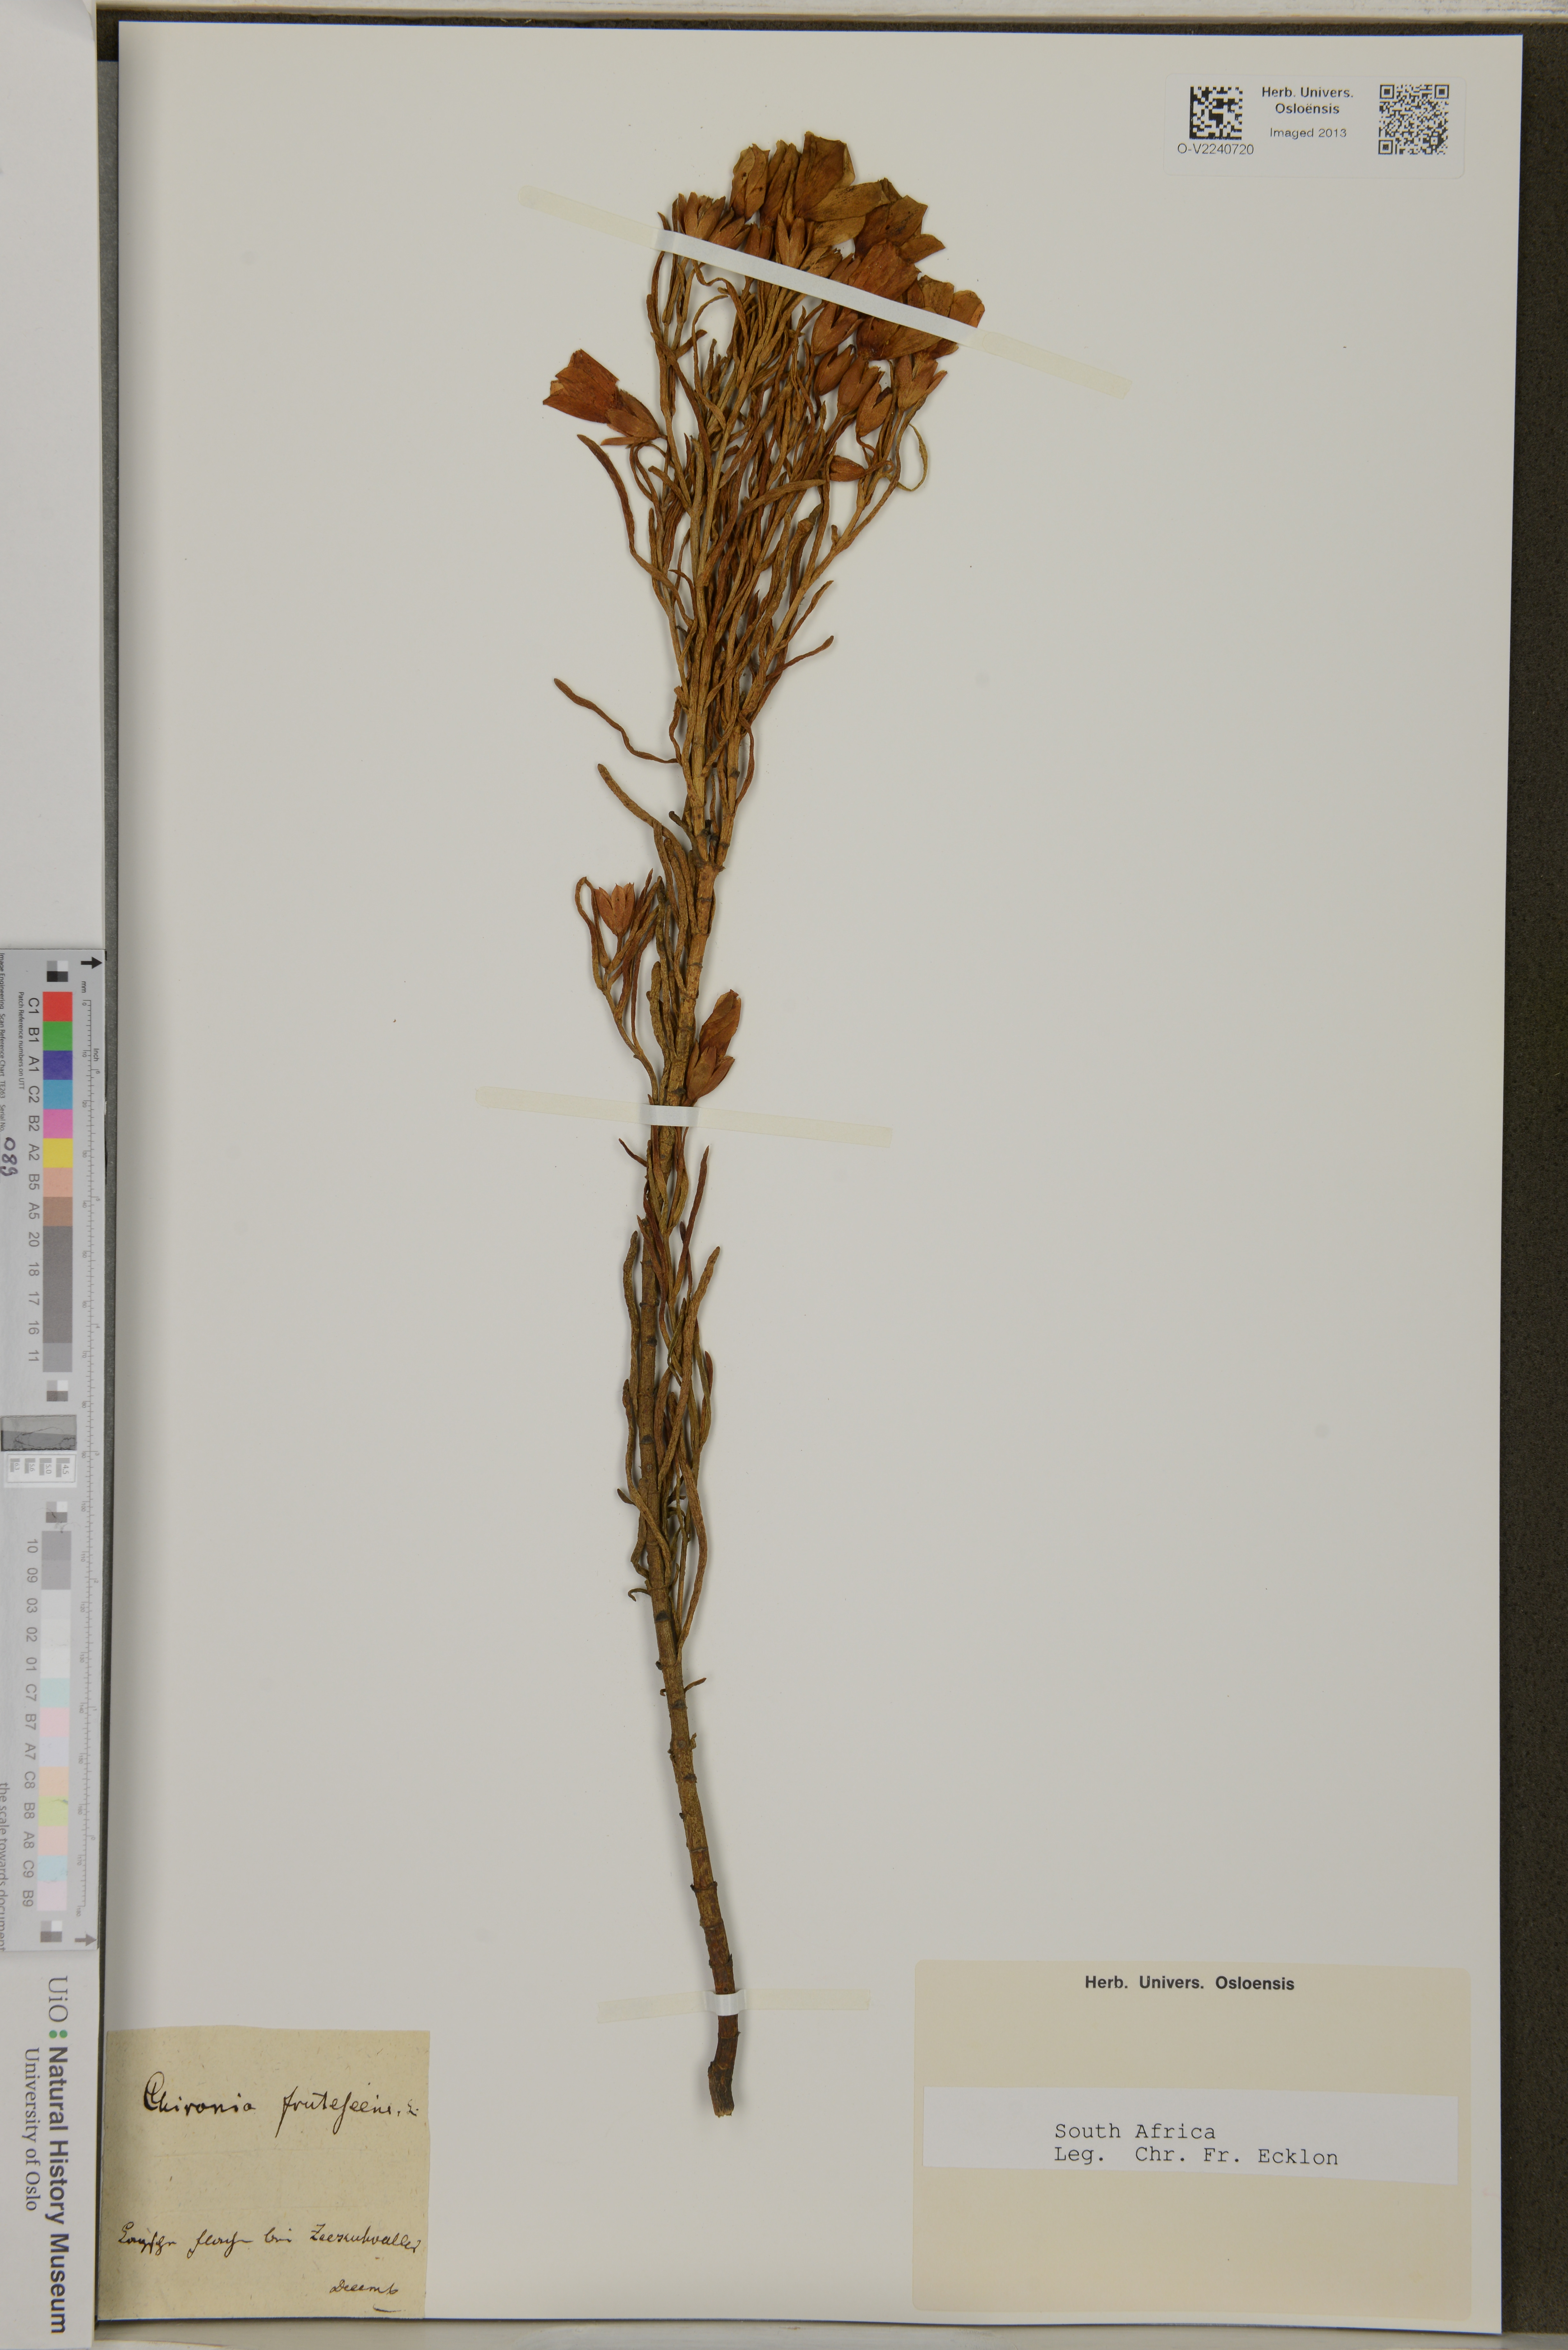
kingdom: Plantae
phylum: Tracheophyta
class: Magnoliopsida
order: Gentianales
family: Gentianaceae
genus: Orphium
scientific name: Orphium frutescens
